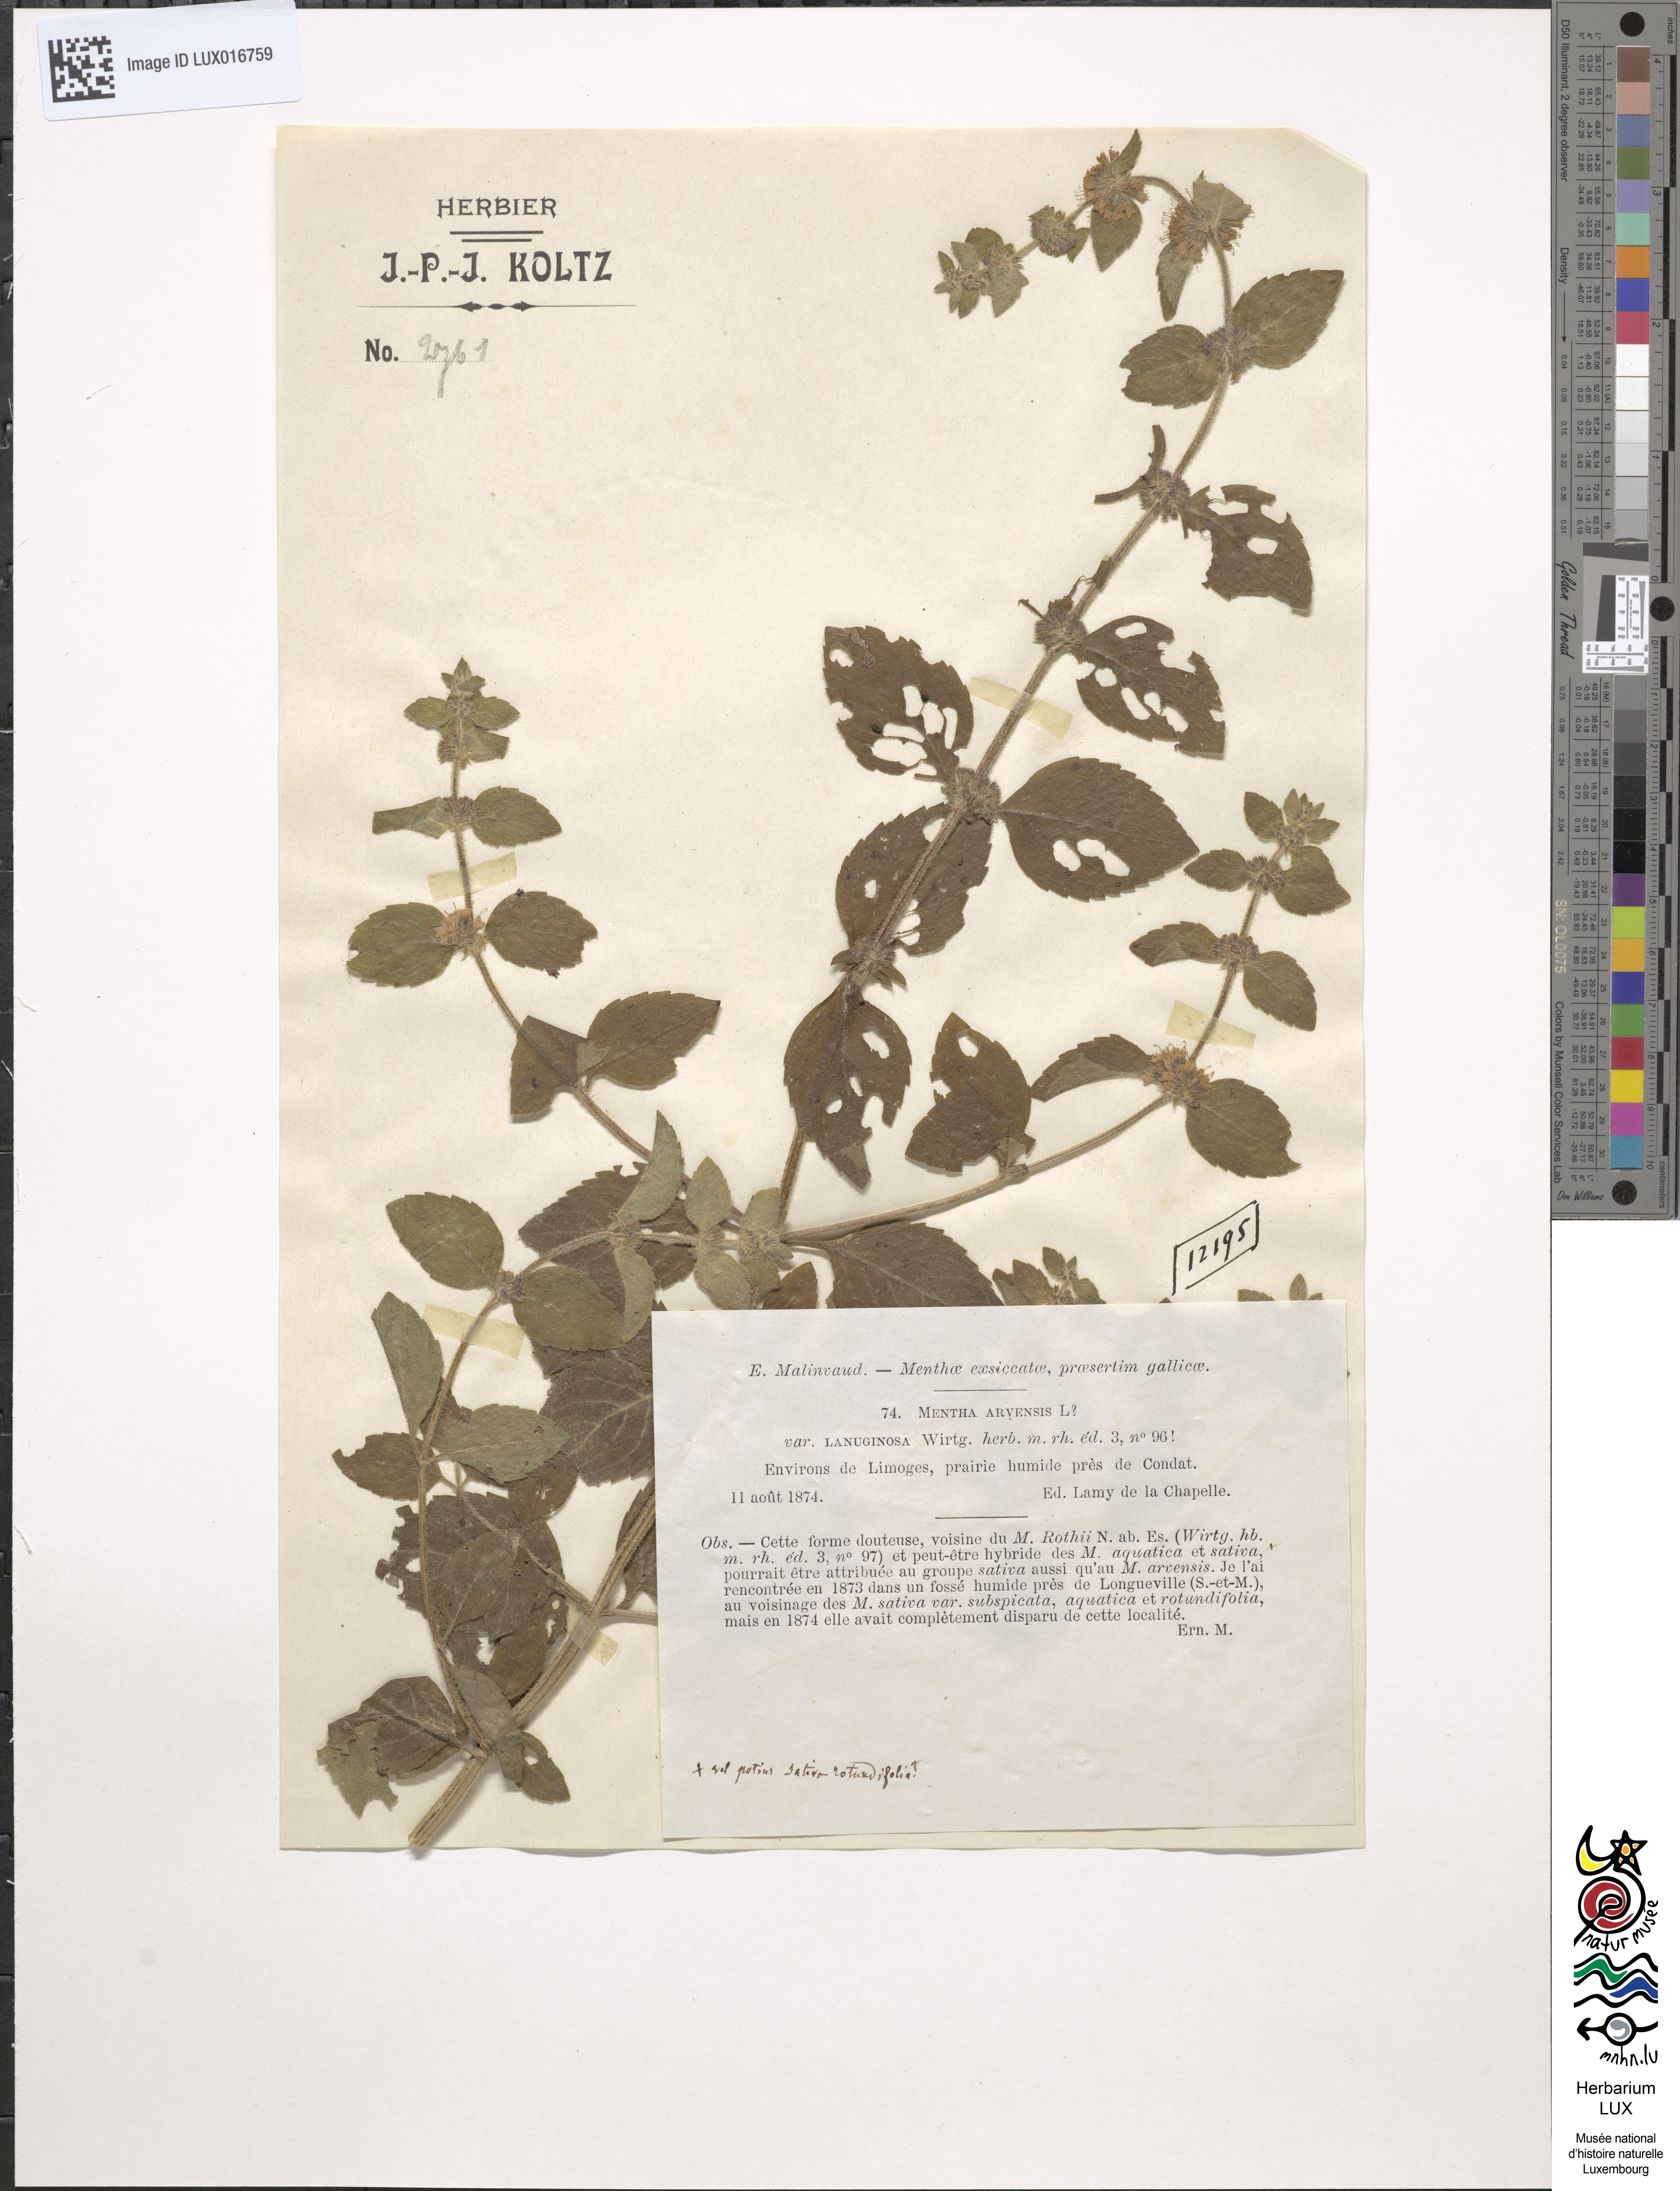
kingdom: Plantae
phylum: Tracheophyta
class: Magnoliopsida
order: Lamiales
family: Lamiaceae
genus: Mentha
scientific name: Mentha arvensis
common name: Corn mint
